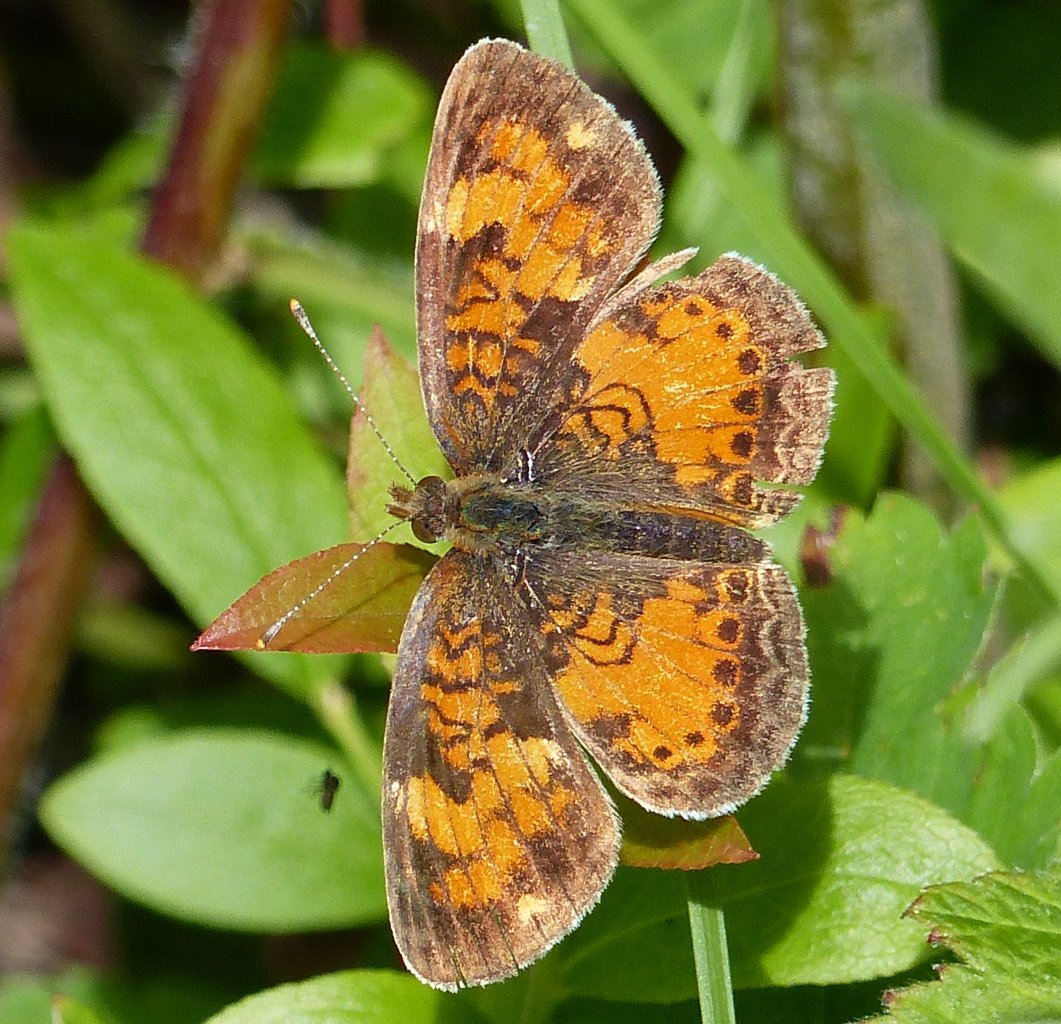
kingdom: Animalia
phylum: Arthropoda
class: Insecta
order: Lepidoptera
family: Nymphalidae
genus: Phyciodes
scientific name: Phyciodes tharos
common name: Northern Crescent
